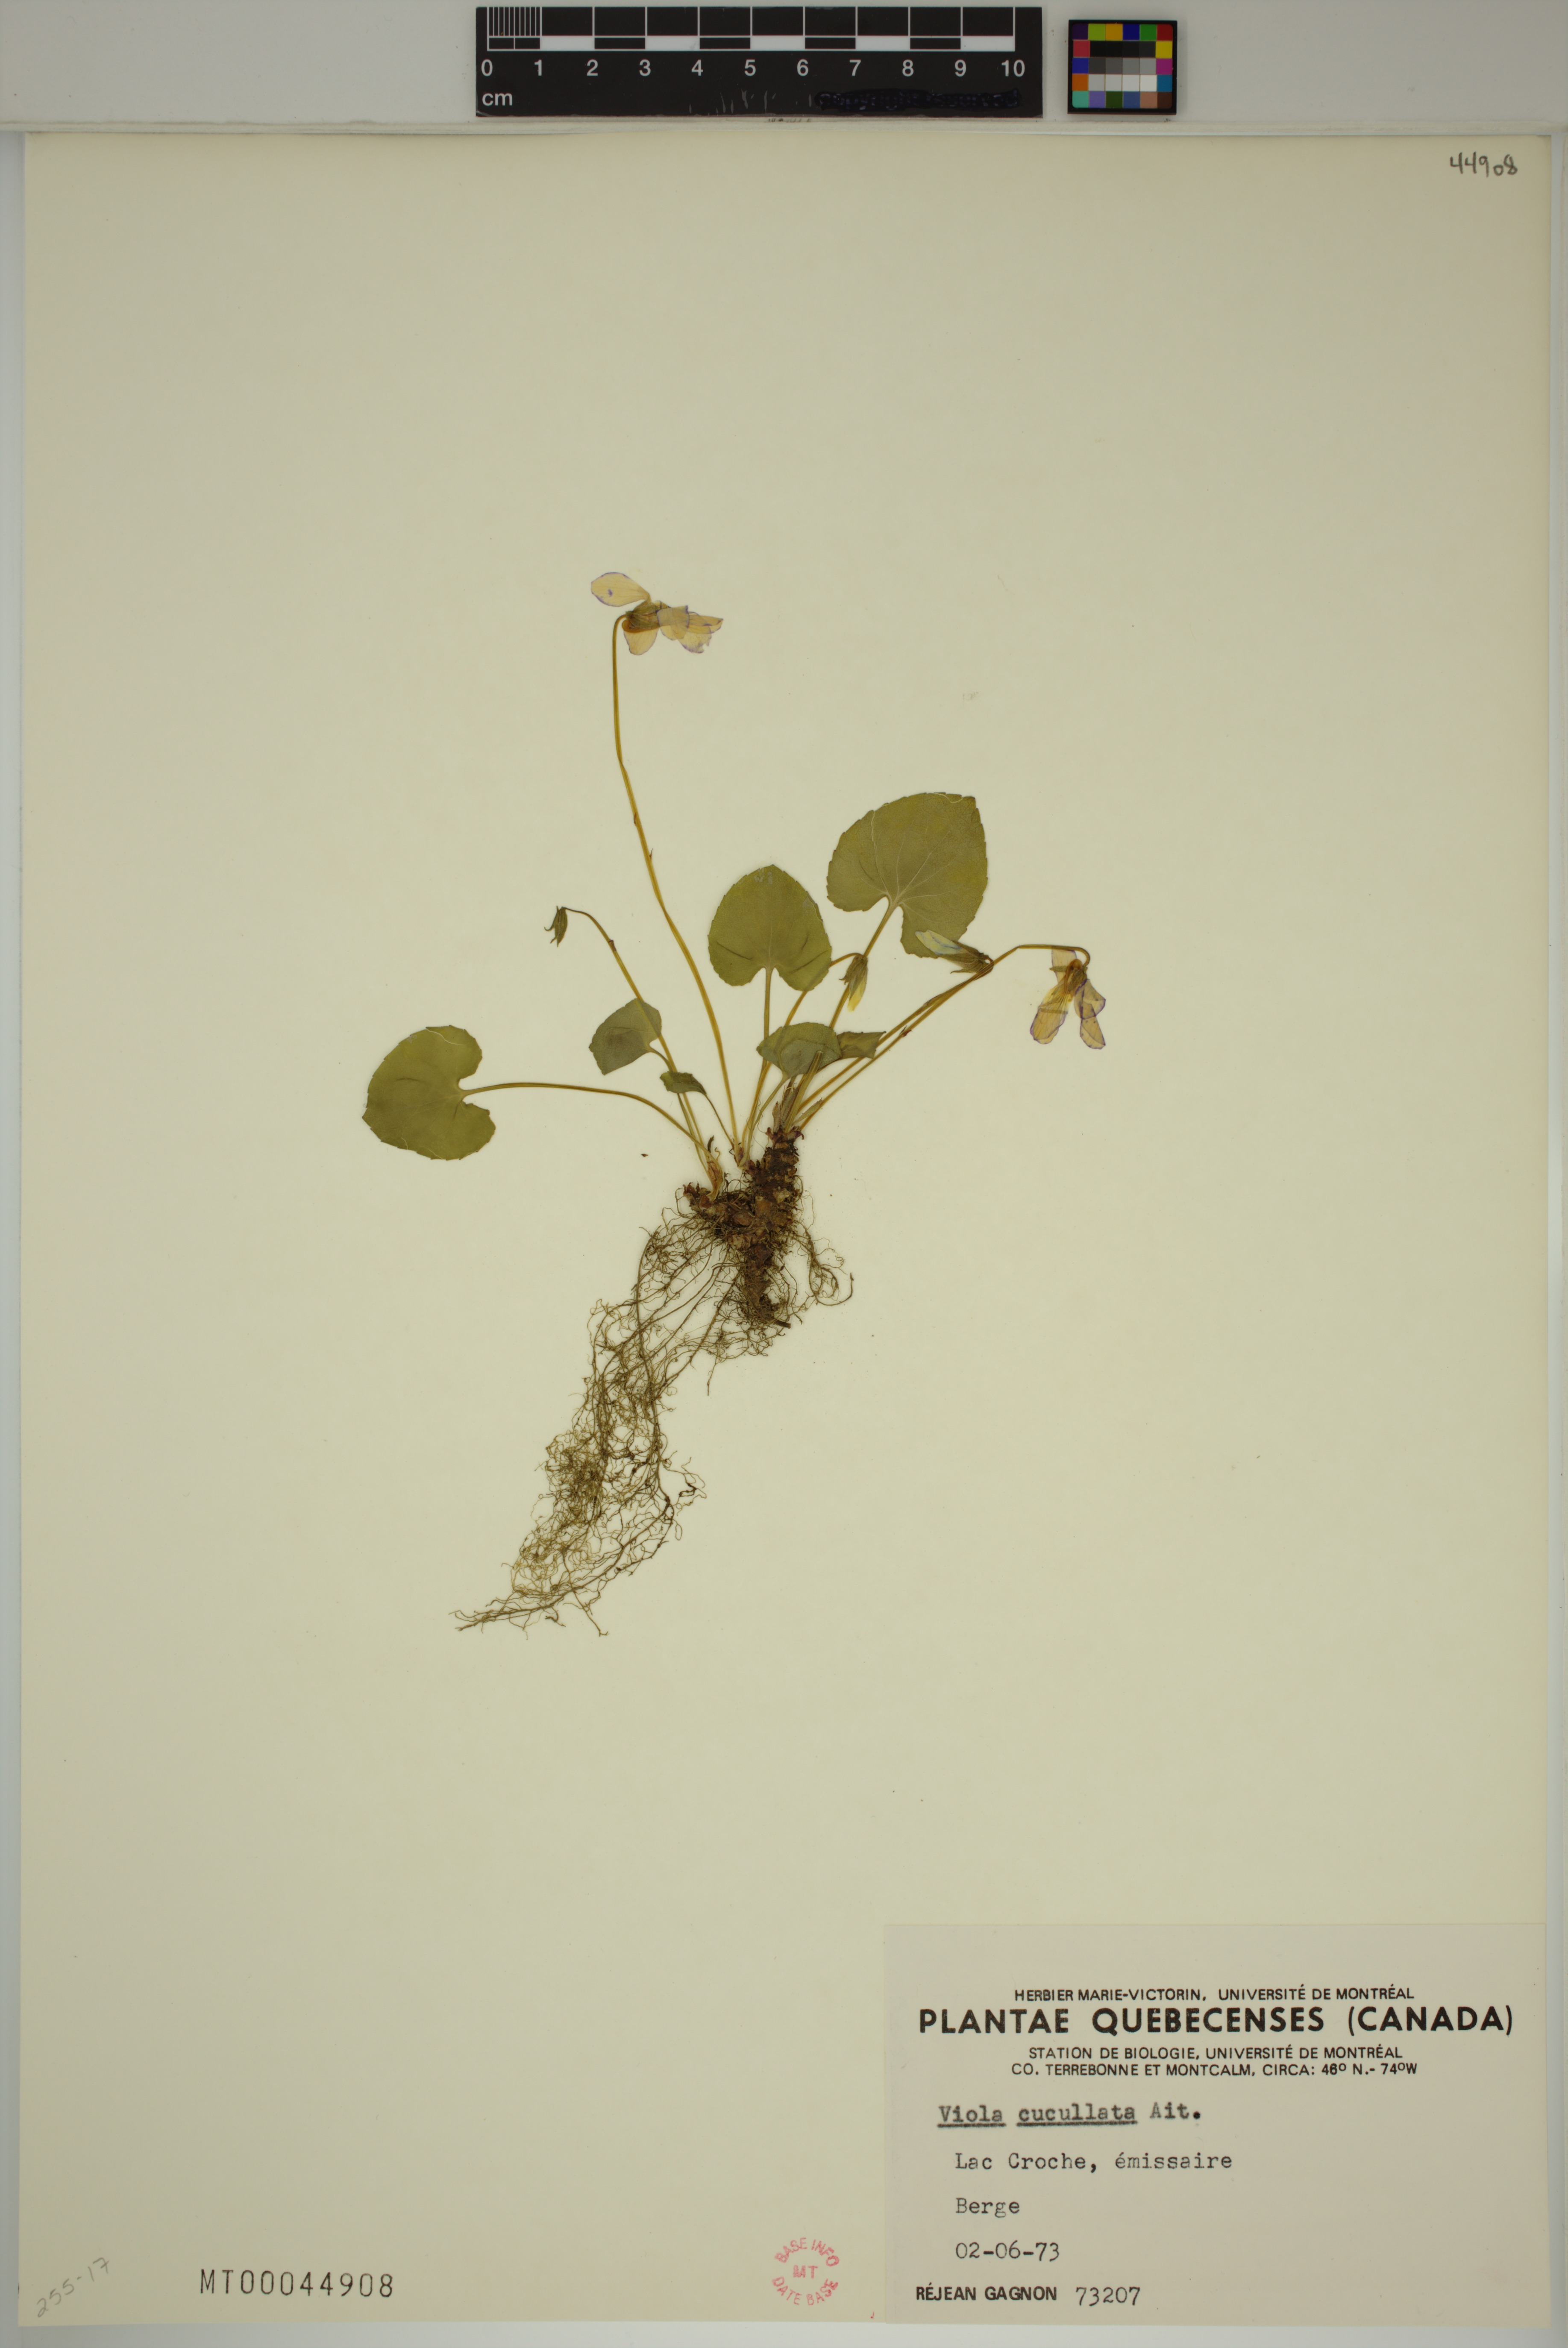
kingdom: Plantae
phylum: Tracheophyta
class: Magnoliopsida
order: Malpighiales
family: Violaceae
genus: Viola
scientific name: Viola cucullata
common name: Marsh blue violet
